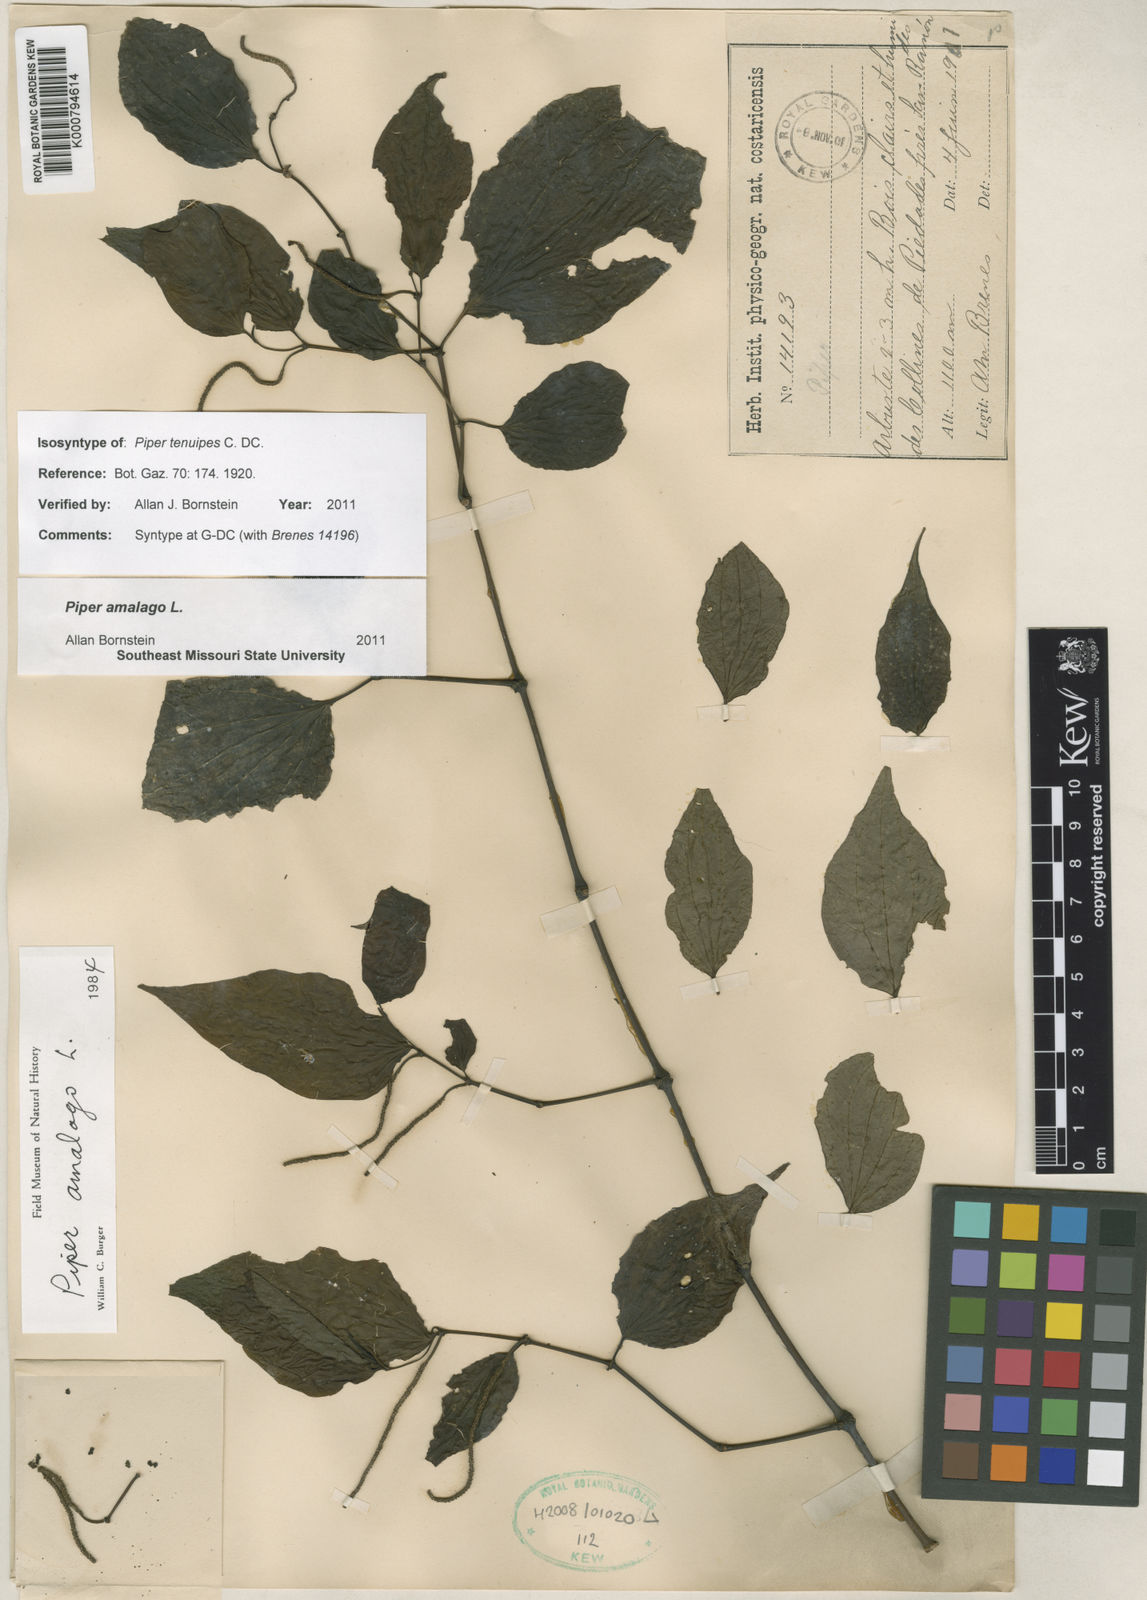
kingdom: Plantae
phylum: Tracheophyta
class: Magnoliopsida
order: Piperales
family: Piperaceae
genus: Piper
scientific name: Piper amalago
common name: Pepper-elder
